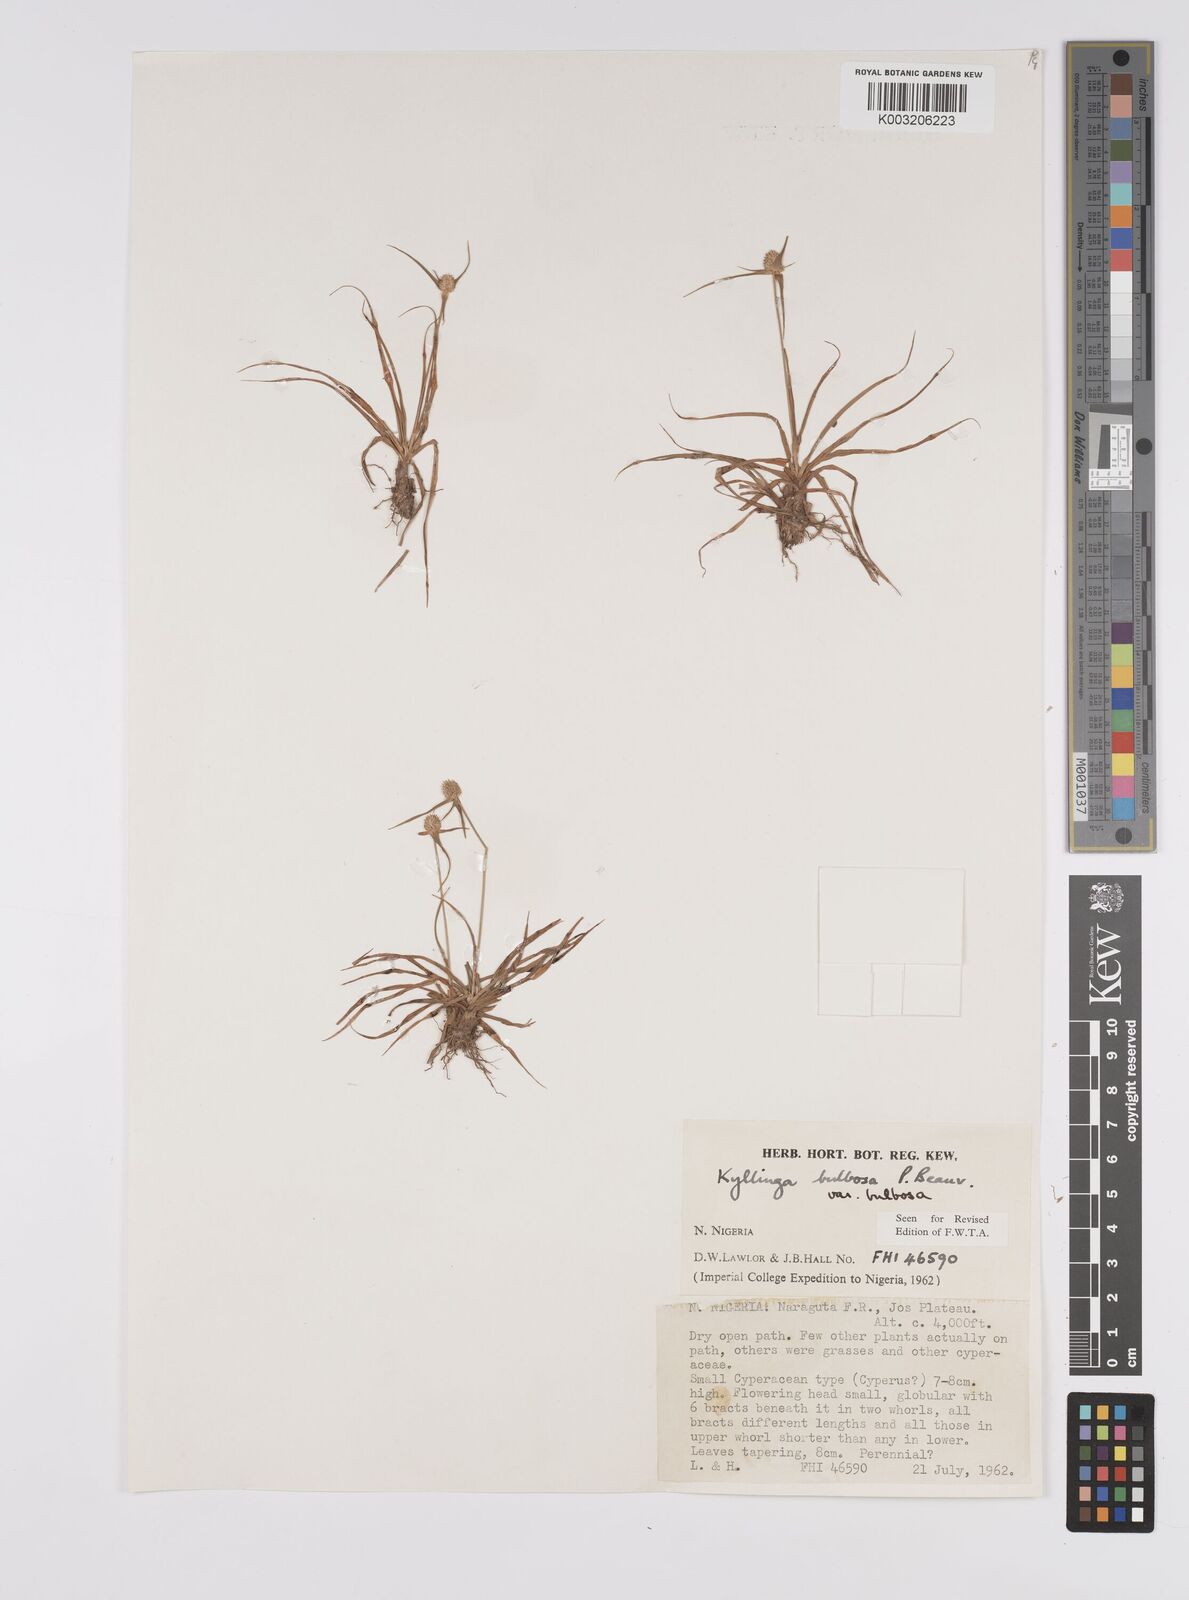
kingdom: Plantae
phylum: Tracheophyta
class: Liliopsida
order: Poales
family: Cyperaceae
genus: Cyperus
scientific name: Cyperus
